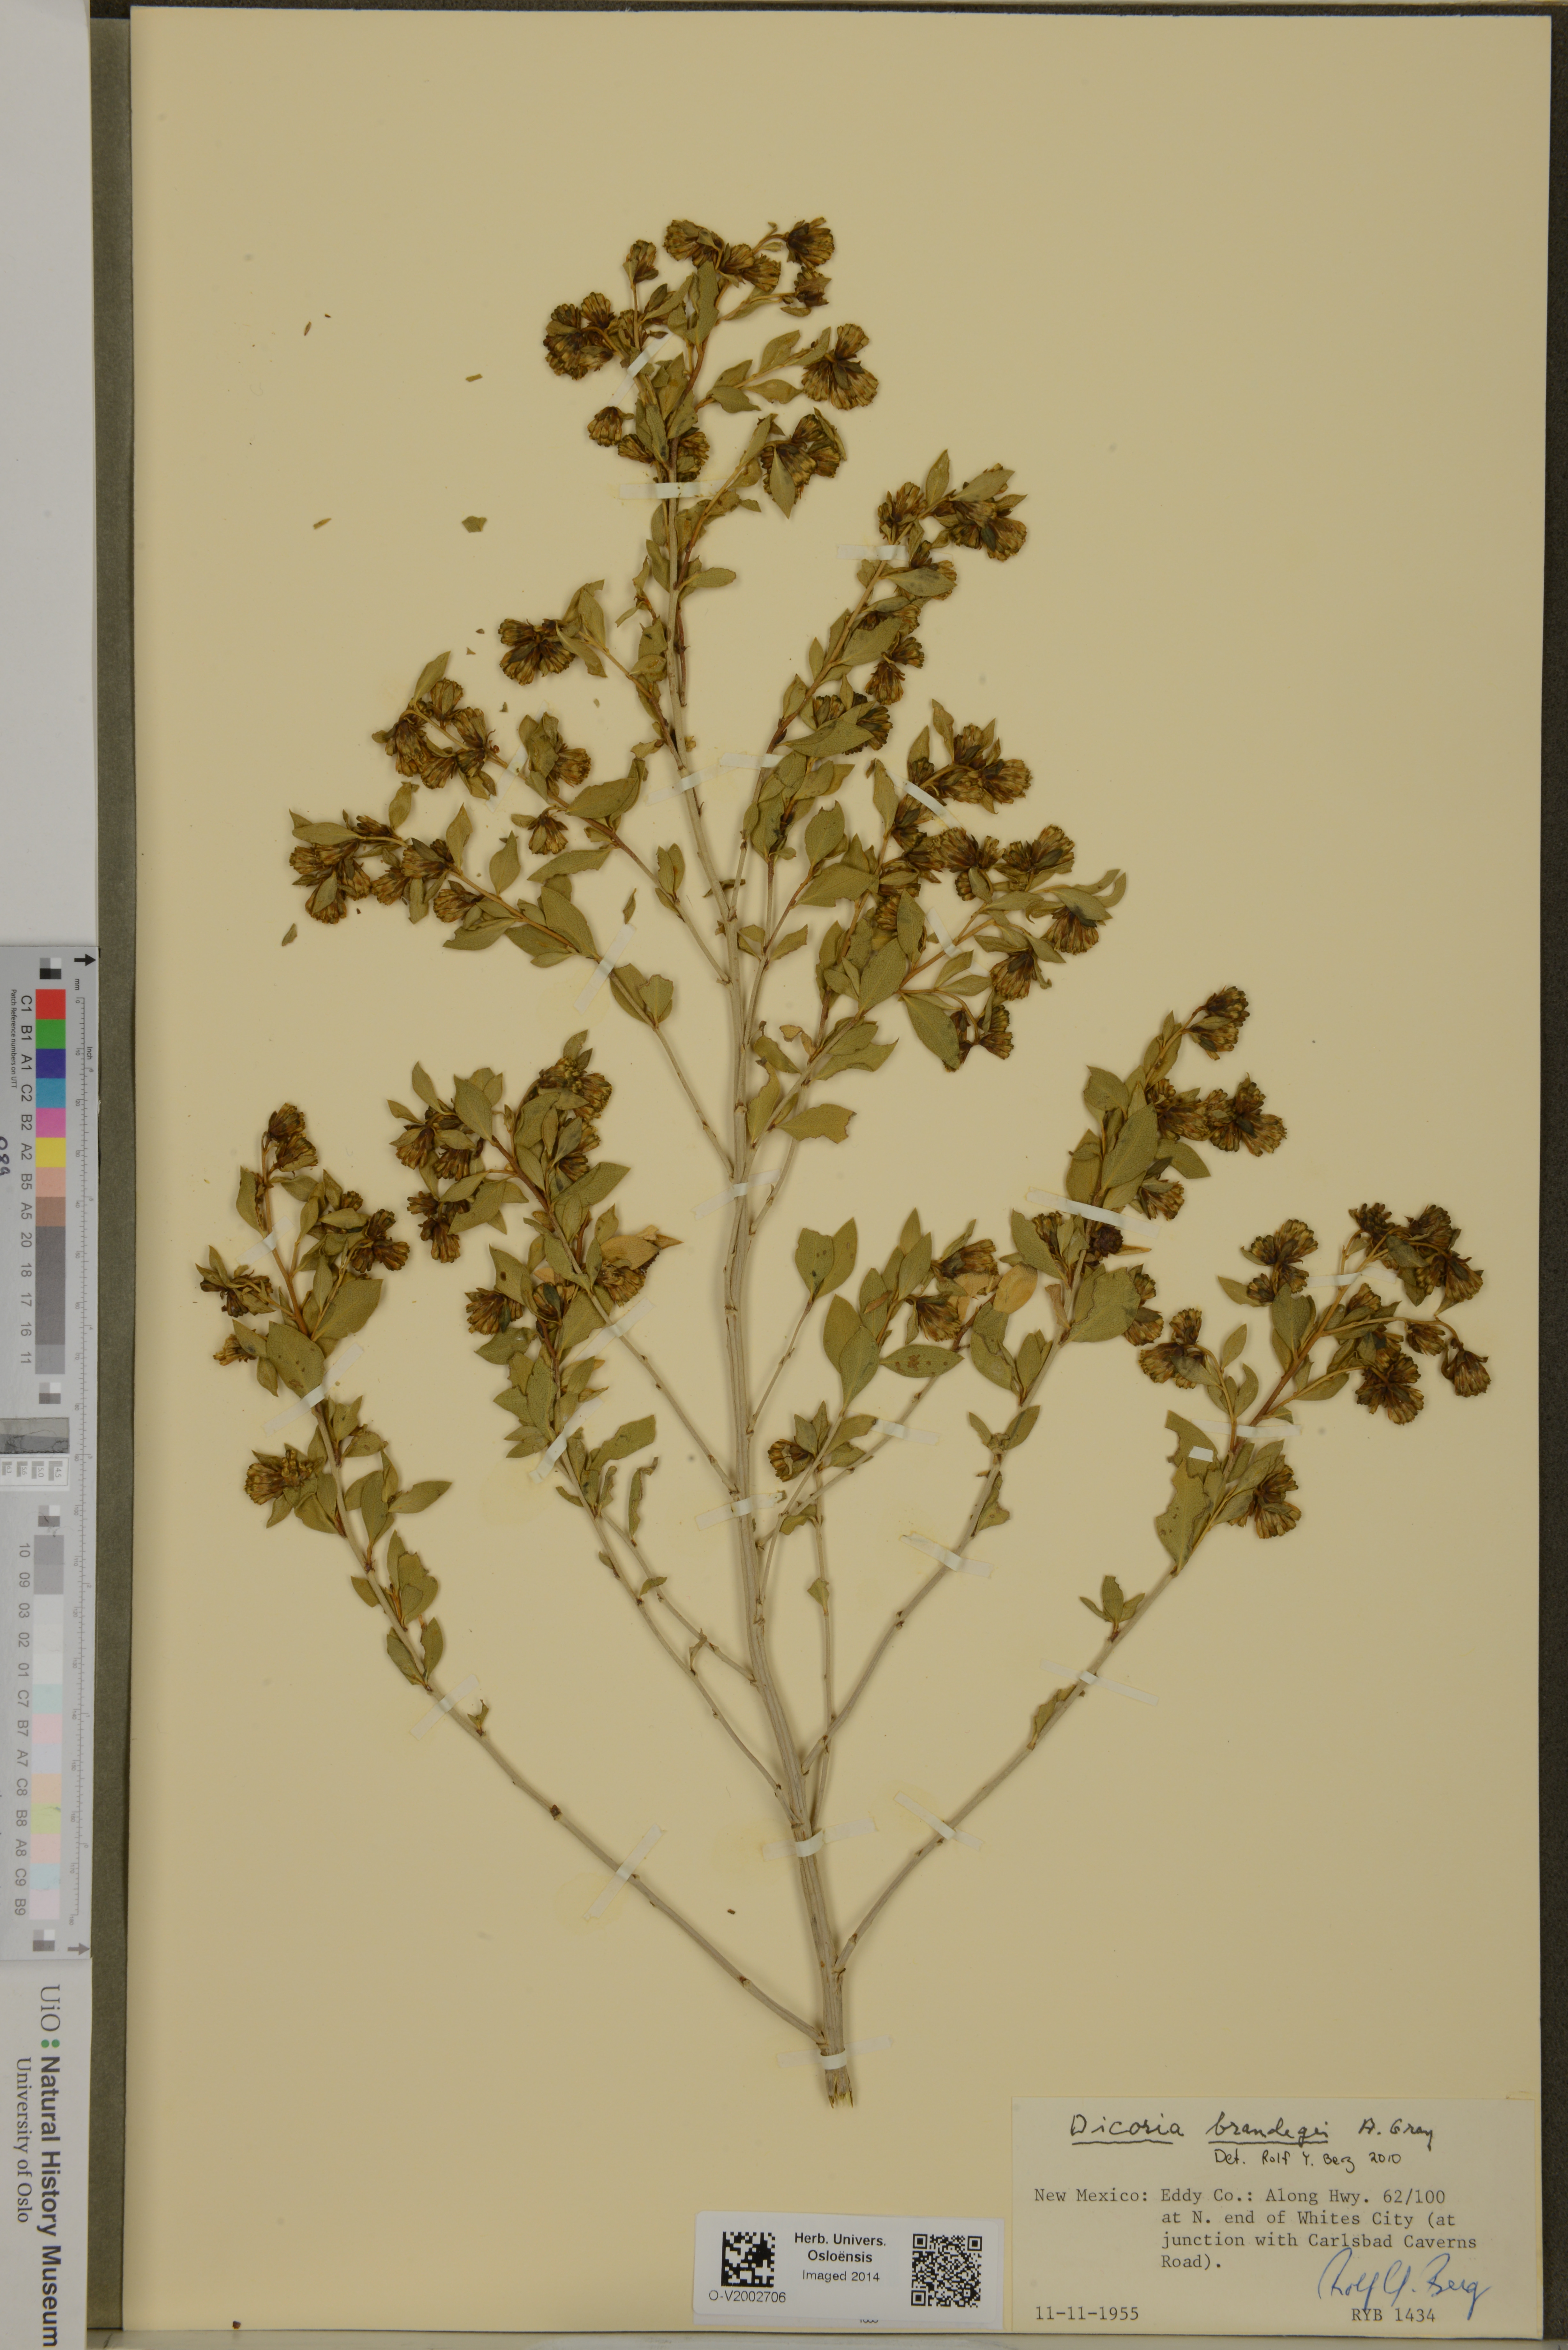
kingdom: Plantae
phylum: Tracheophyta
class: Magnoliopsida
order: Asterales
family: Asteraceae
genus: Dicoria
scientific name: Dicoria canescens
